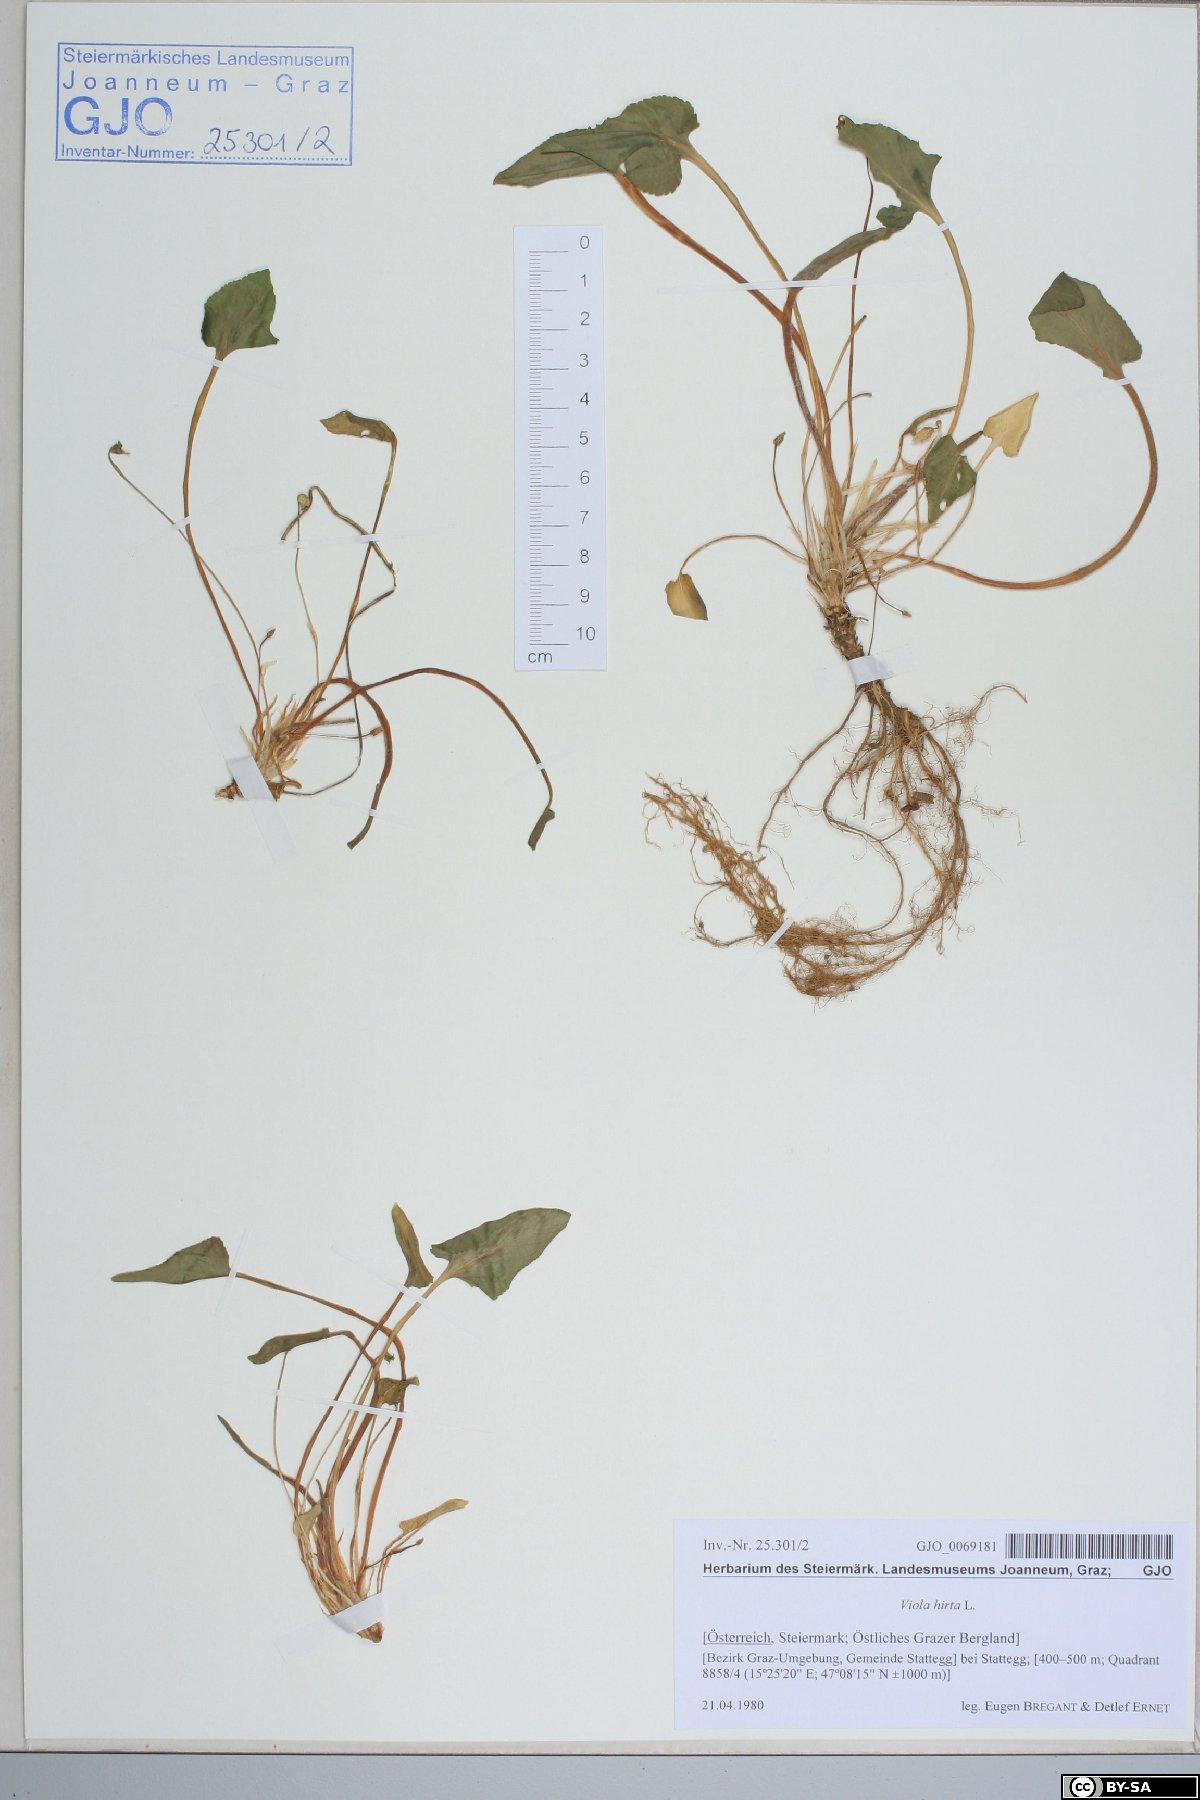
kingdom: Plantae
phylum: Tracheophyta
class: Magnoliopsida
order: Malpighiales
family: Violaceae
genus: Viola
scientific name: Viola hirta
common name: Hairy violet
